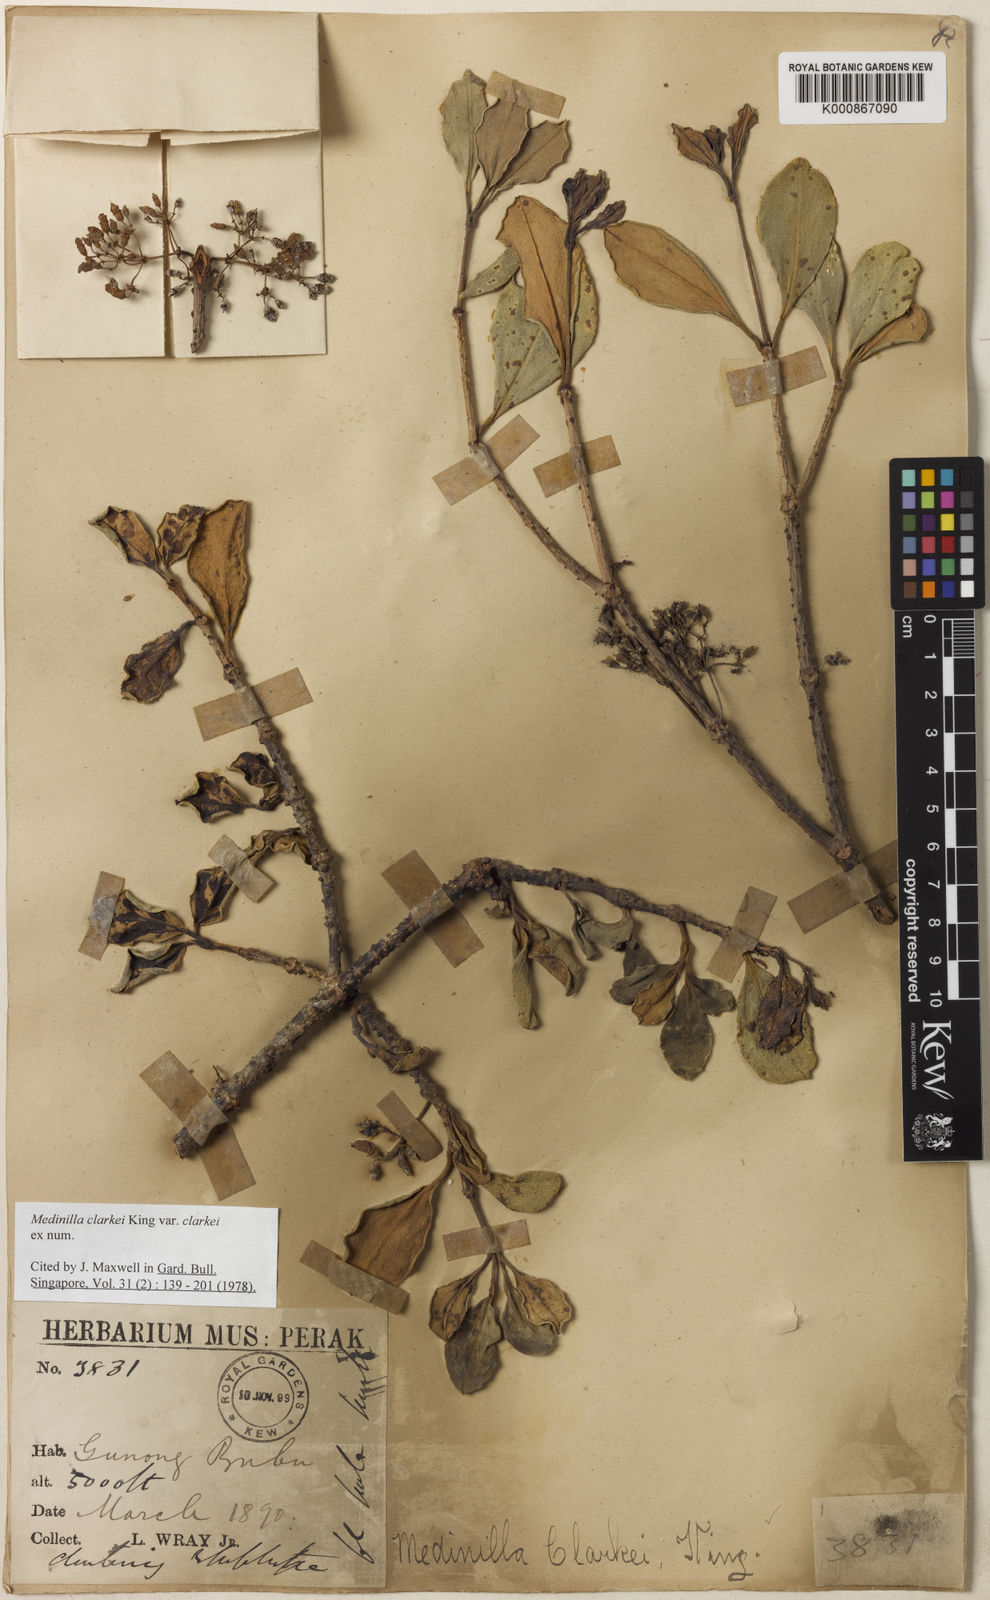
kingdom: Plantae
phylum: Tracheophyta
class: Magnoliopsida
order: Myrtales
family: Melastomataceae
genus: Medinilla
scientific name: Medinilla clarkei
